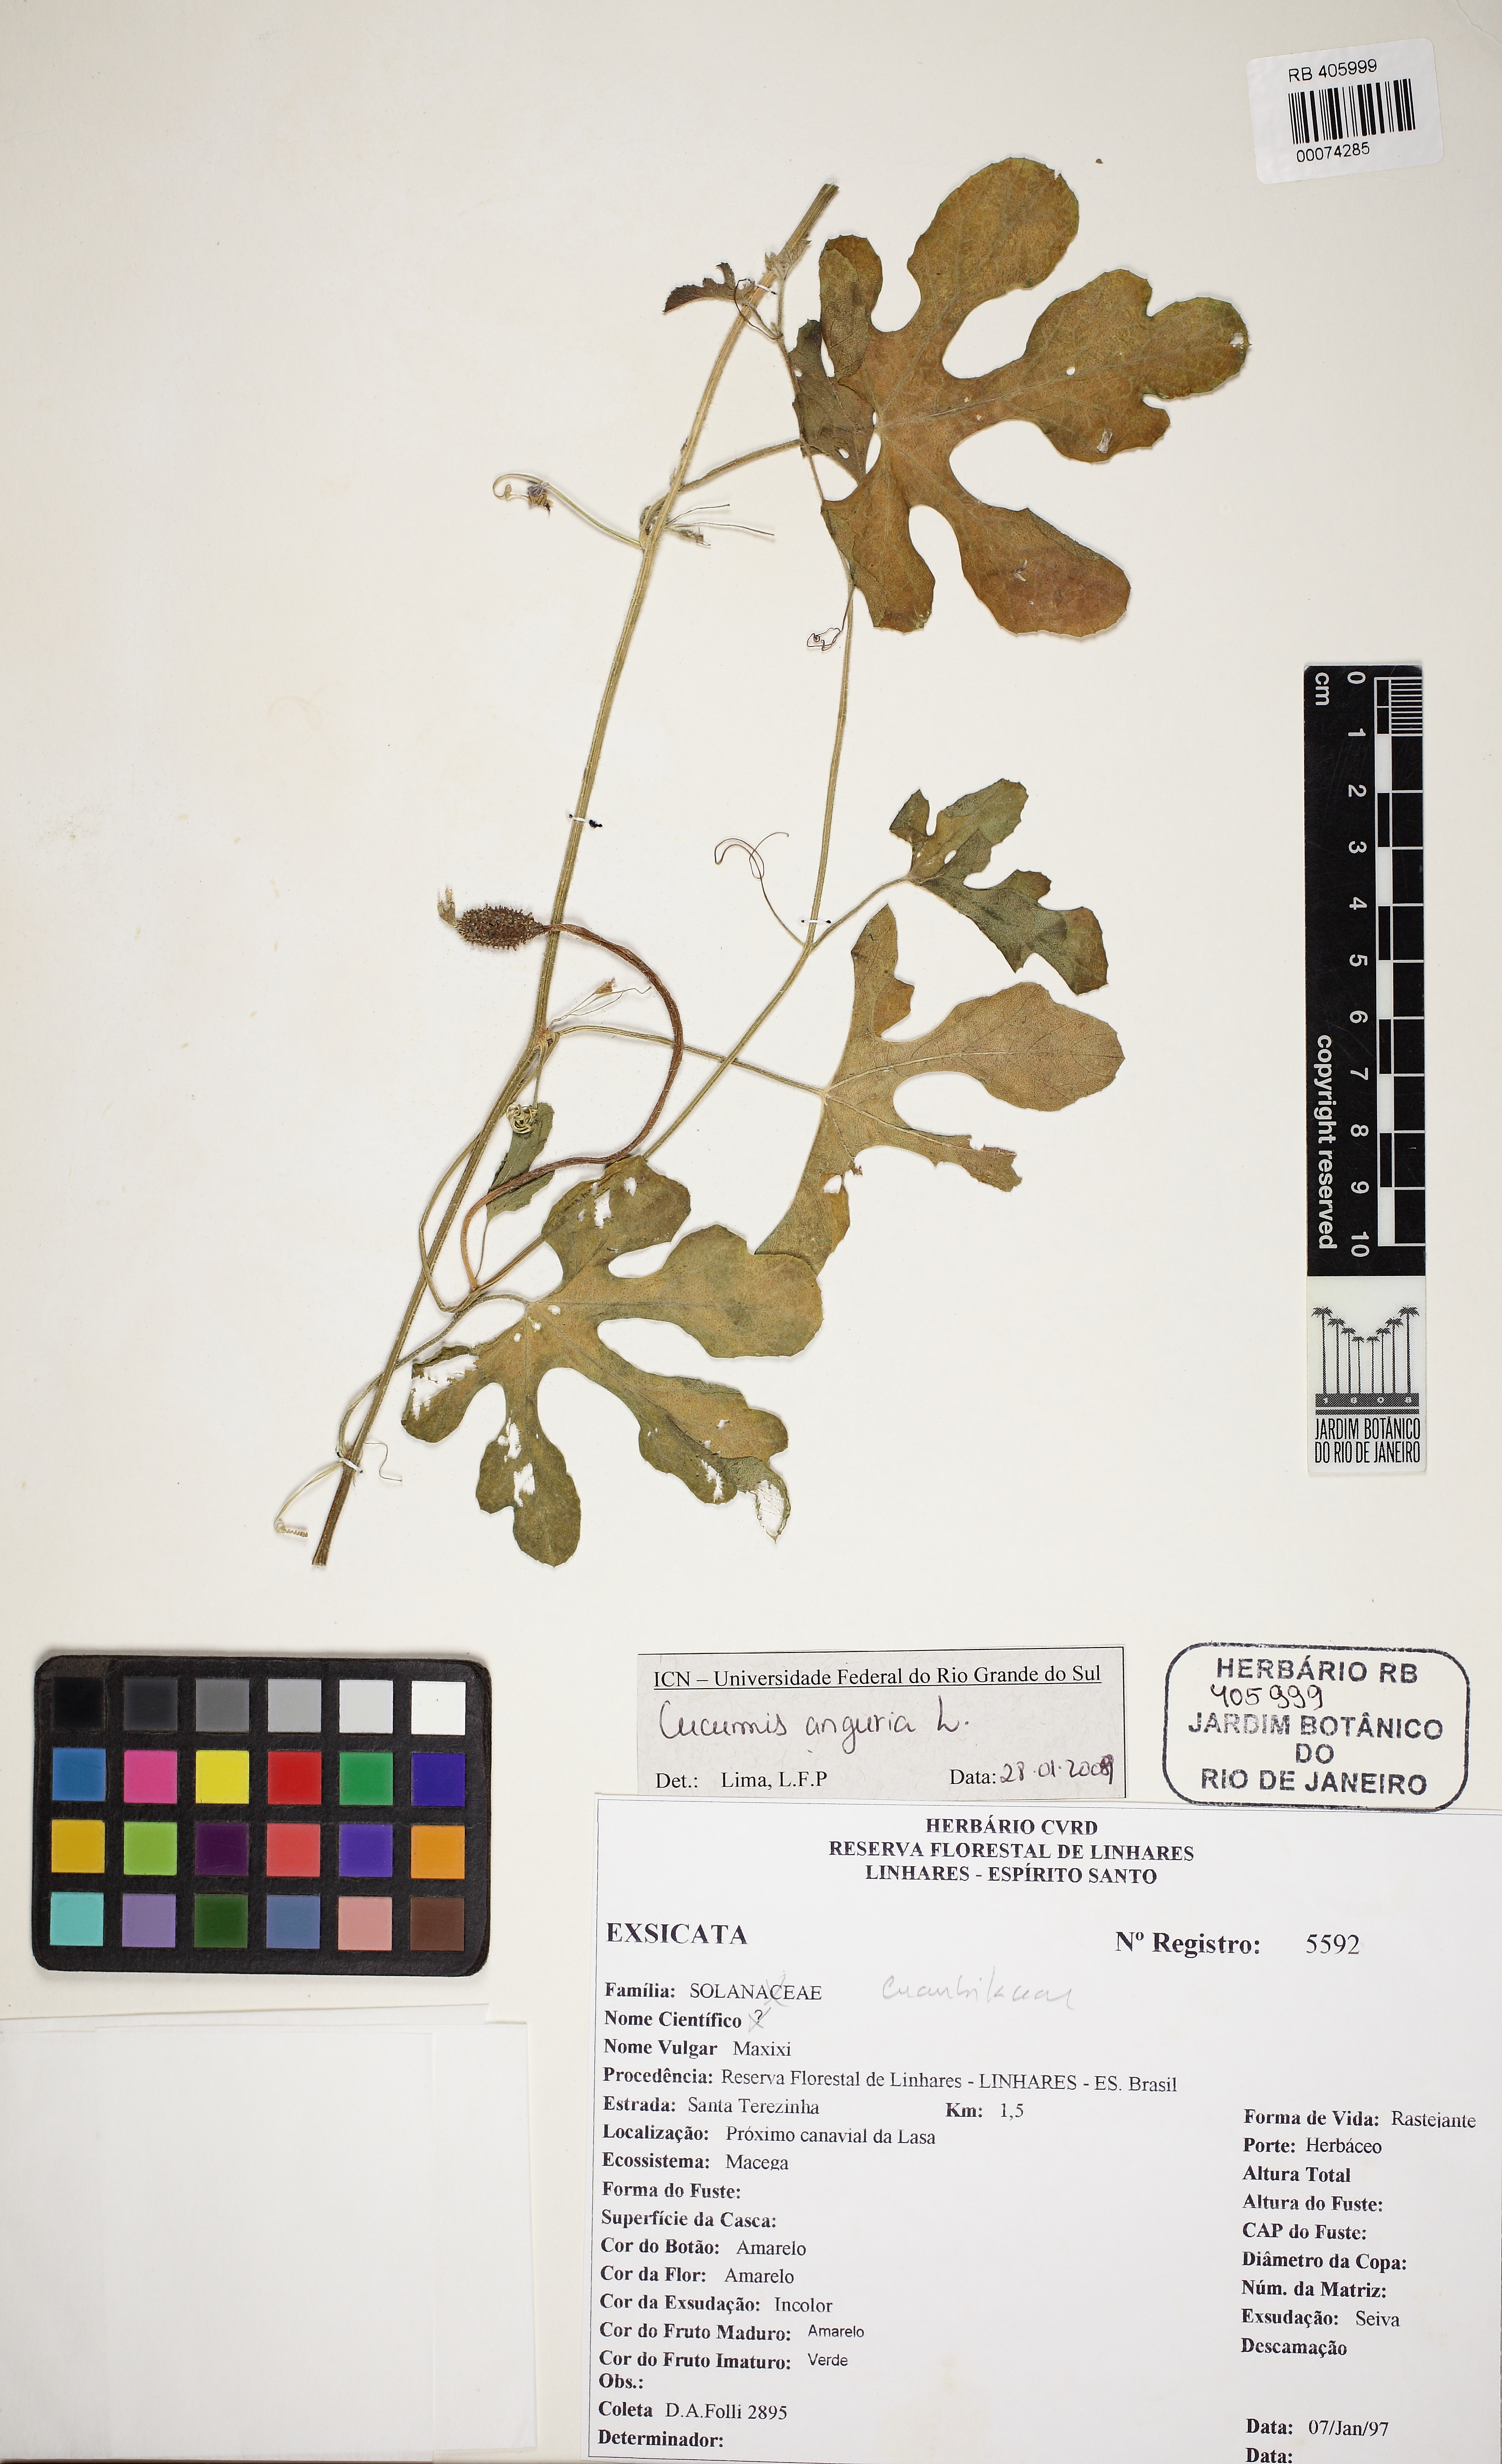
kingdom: Plantae
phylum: Tracheophyta
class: Magnoliopsida
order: Cucurbitales
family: Cucurbitaceae
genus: Cucumis
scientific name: Cucumis anguria
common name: West indian gherkin
